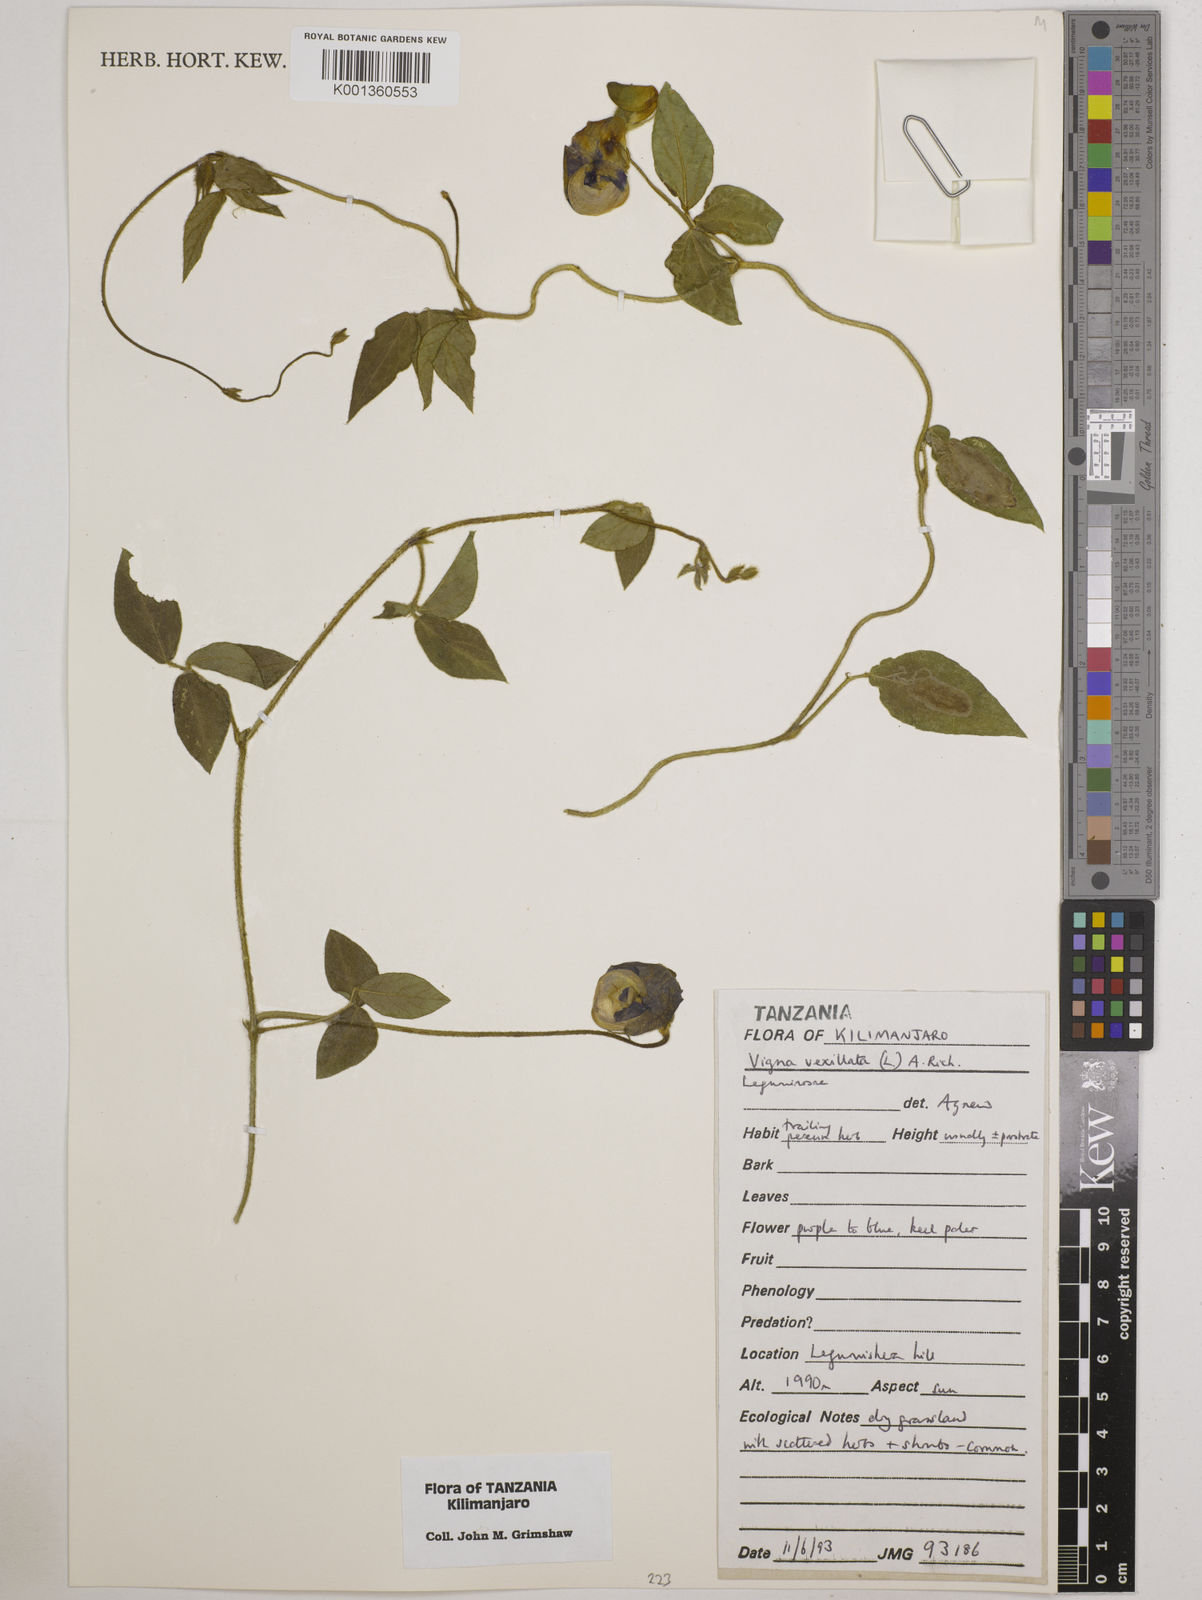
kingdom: Plantae
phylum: Tracheophyta
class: Magnoliopsida
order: Fabales
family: Fabaceae
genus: Vigna
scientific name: Vigna vexillata
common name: Zombi pea
